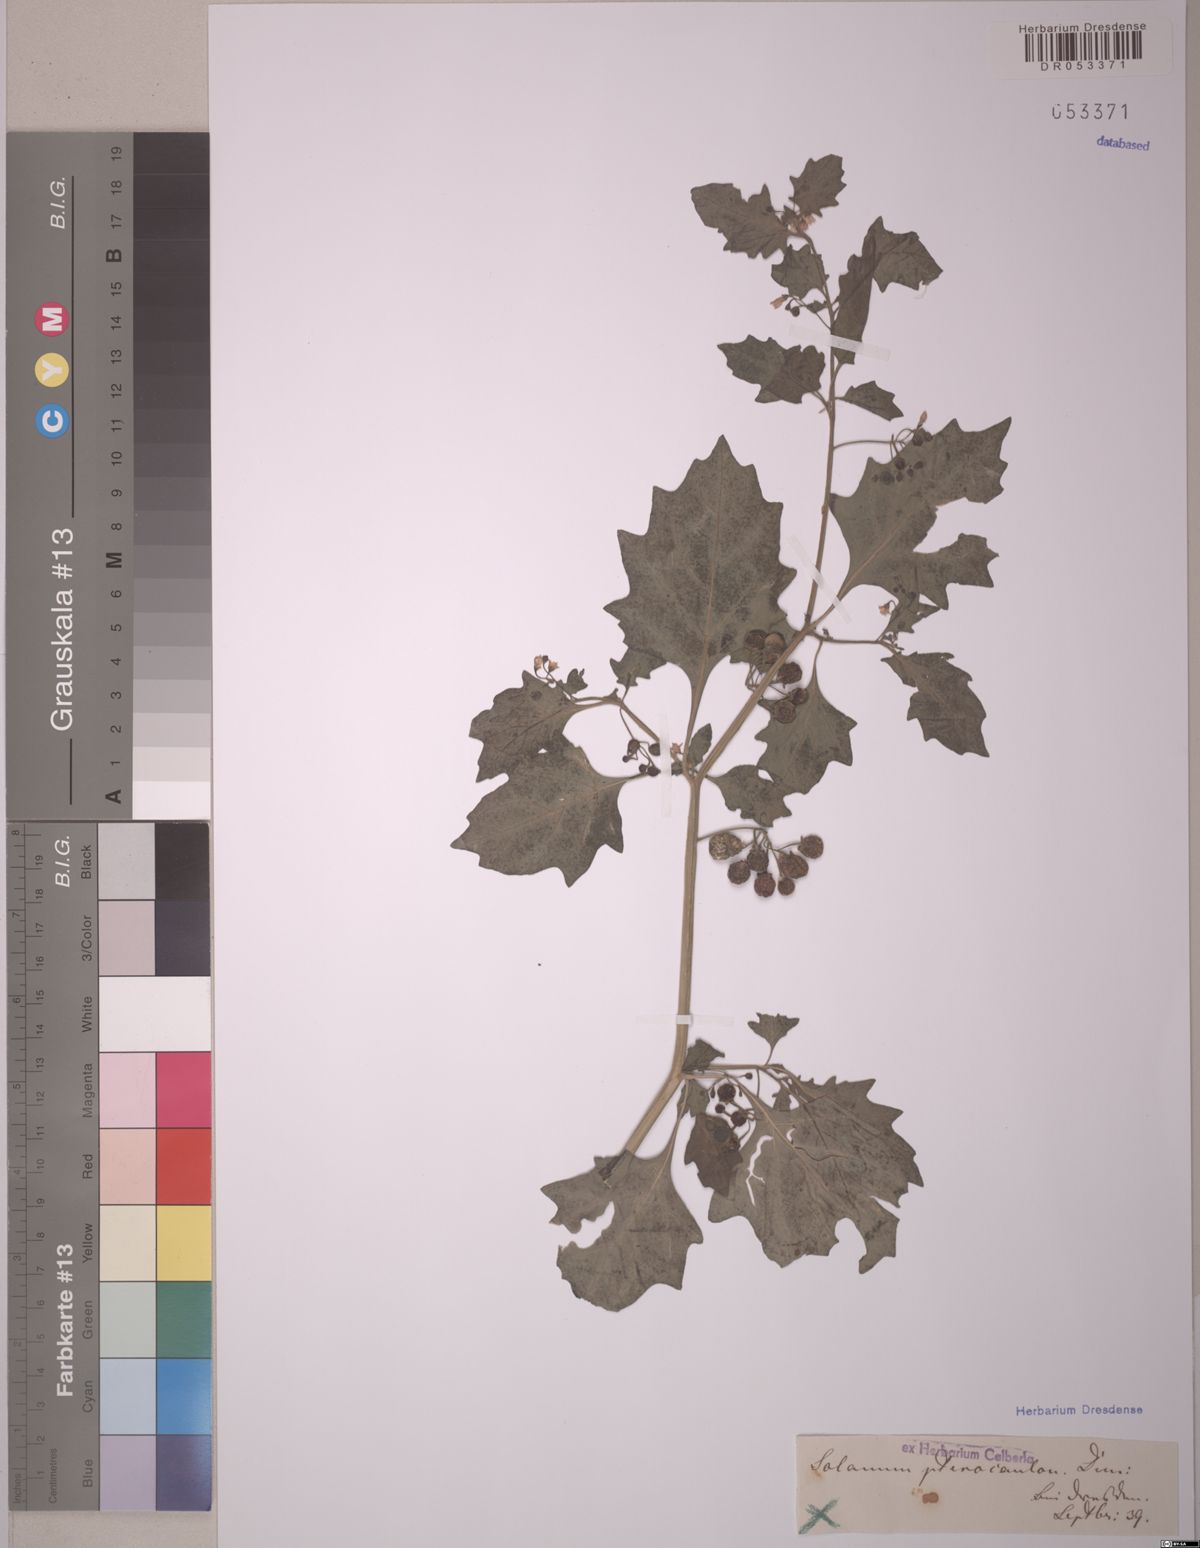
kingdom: Plantae
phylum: Tracheophyta
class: Magnoliopsida
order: Solanales
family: Solanaceae
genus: Solanum
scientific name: Solanum
